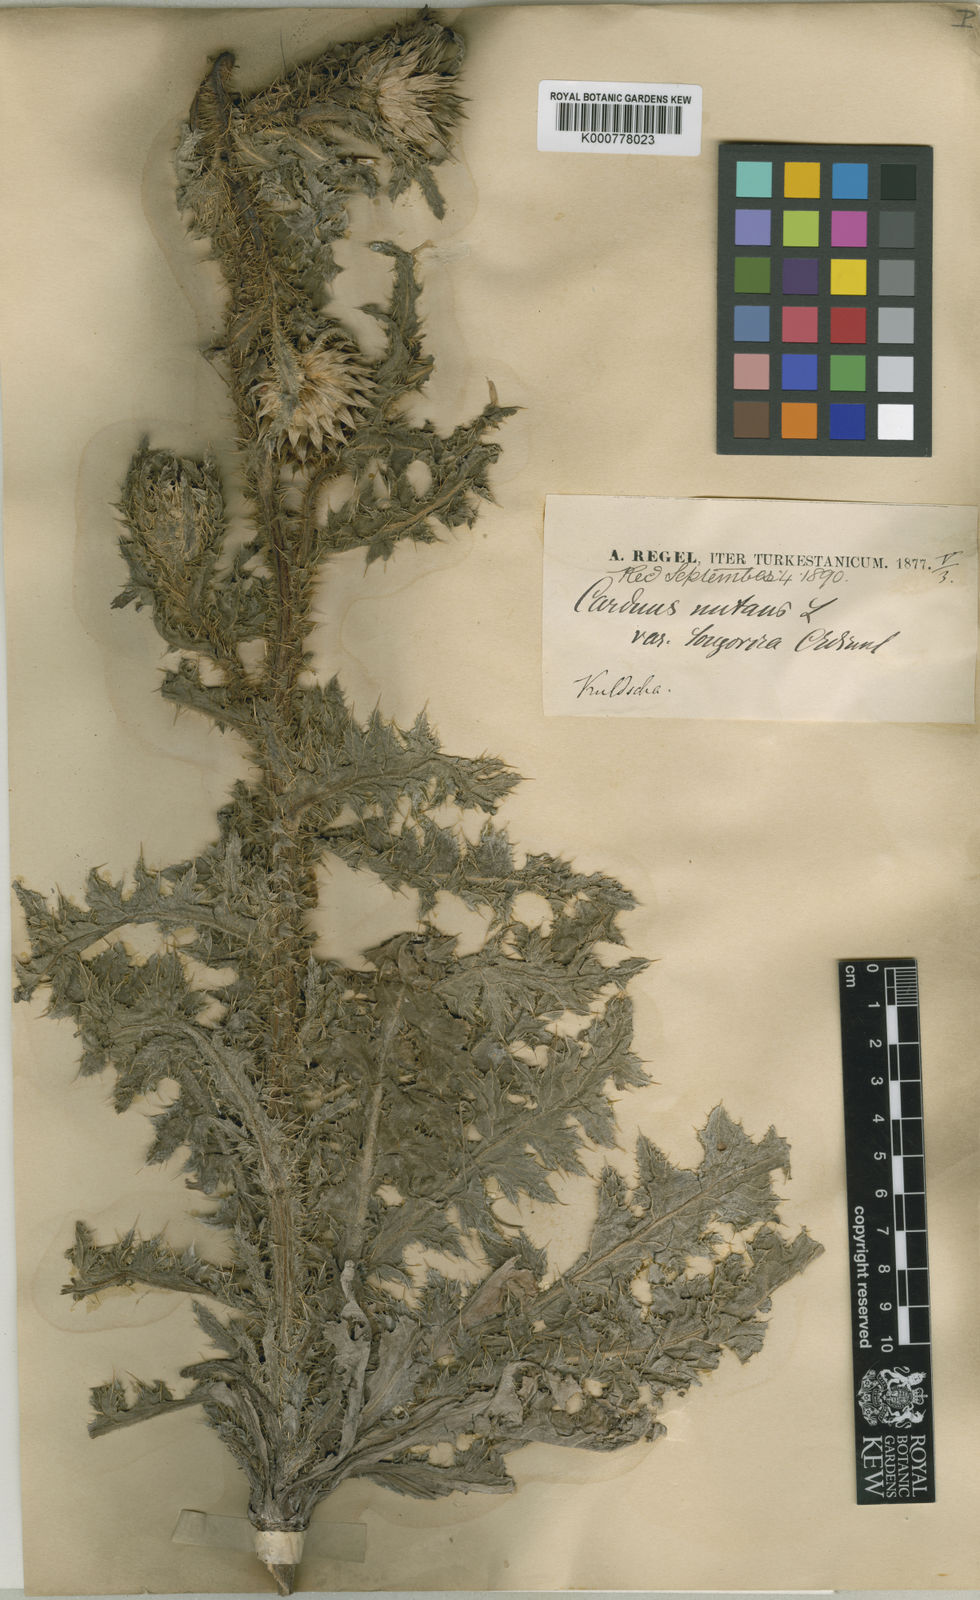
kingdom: Plantae
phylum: Tracheophyta
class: Magnoliopsida
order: Asterales
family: Asteraceae
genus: Carduus
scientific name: Carduus nutans
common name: Musk thistle
